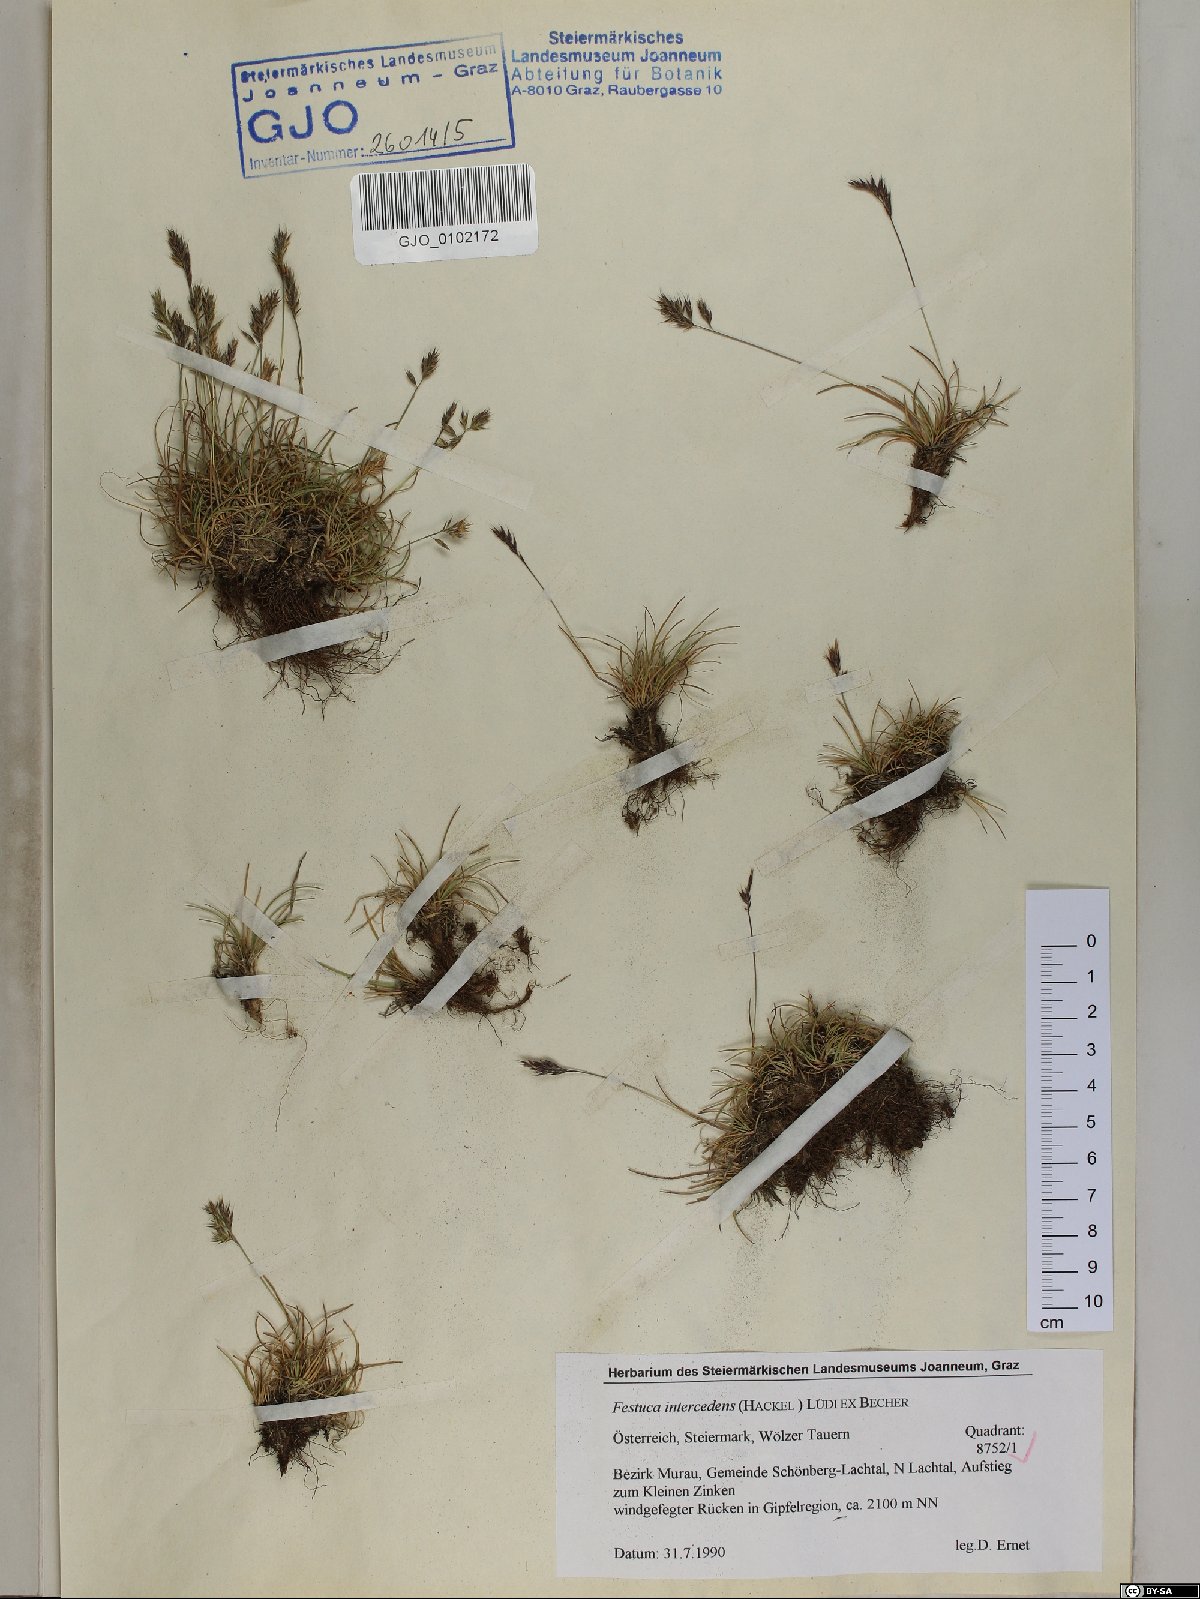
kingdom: Plantae
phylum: Tracheophyta
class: Liliopsida
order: Poales
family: Poaceae
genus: Festuca
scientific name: Festuca intercedens
